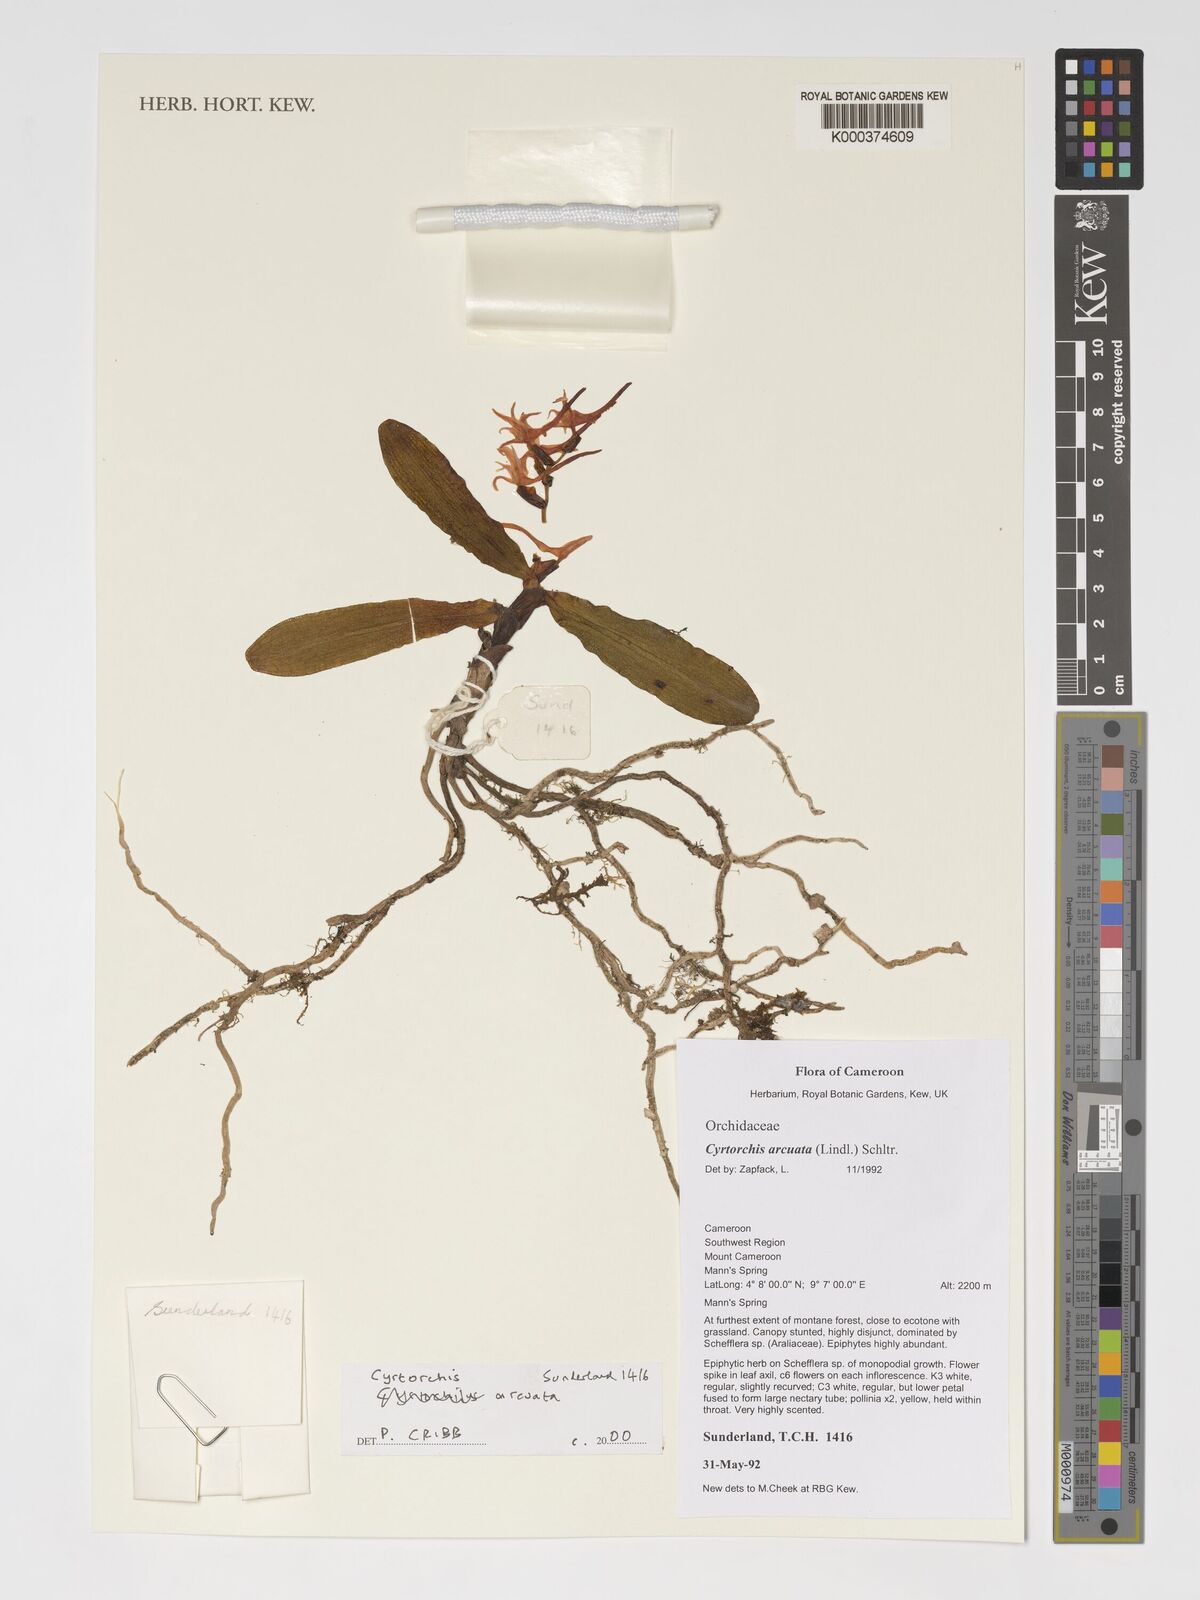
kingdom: Plantae
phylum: Tracheophyta
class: Liliopsida
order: Asparagales
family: Orchidaceae
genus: Cyrtorchis
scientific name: Cyrtorchis arcuata
